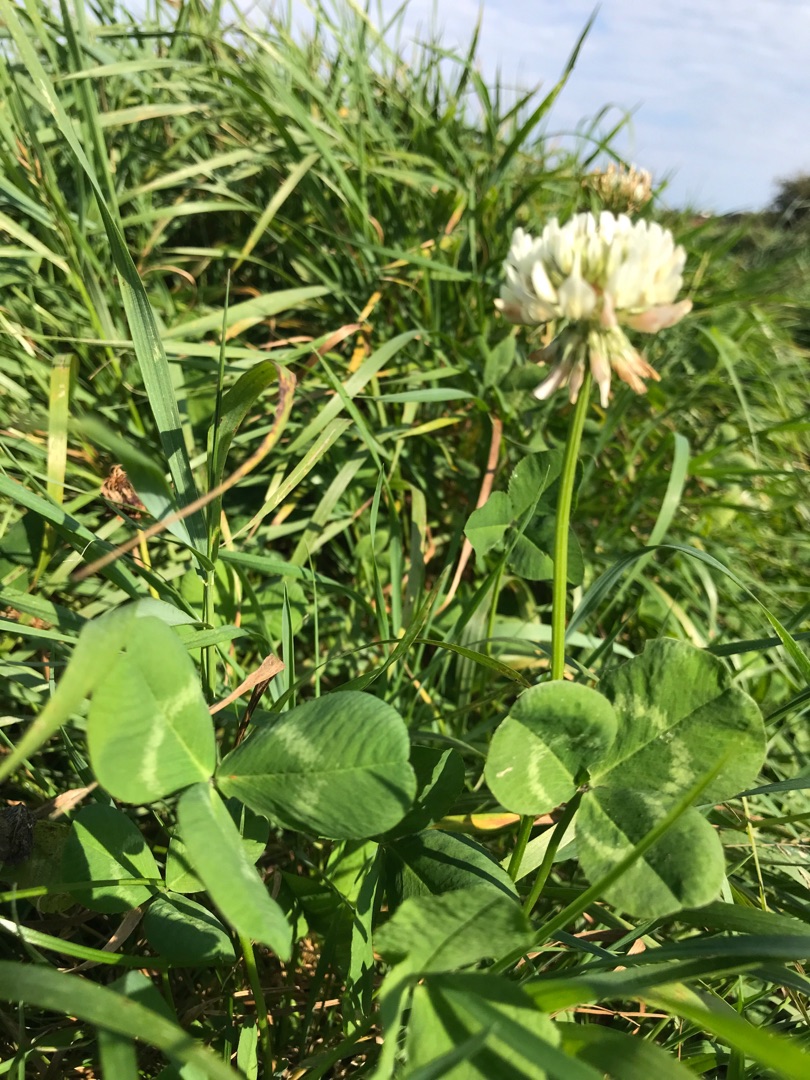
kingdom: Plantae
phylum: Tracheophyta
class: Magnoliopsida
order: Fabales
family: Fabaceae
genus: Trifolium
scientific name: Trifolium repens
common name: Hvid-kløver
